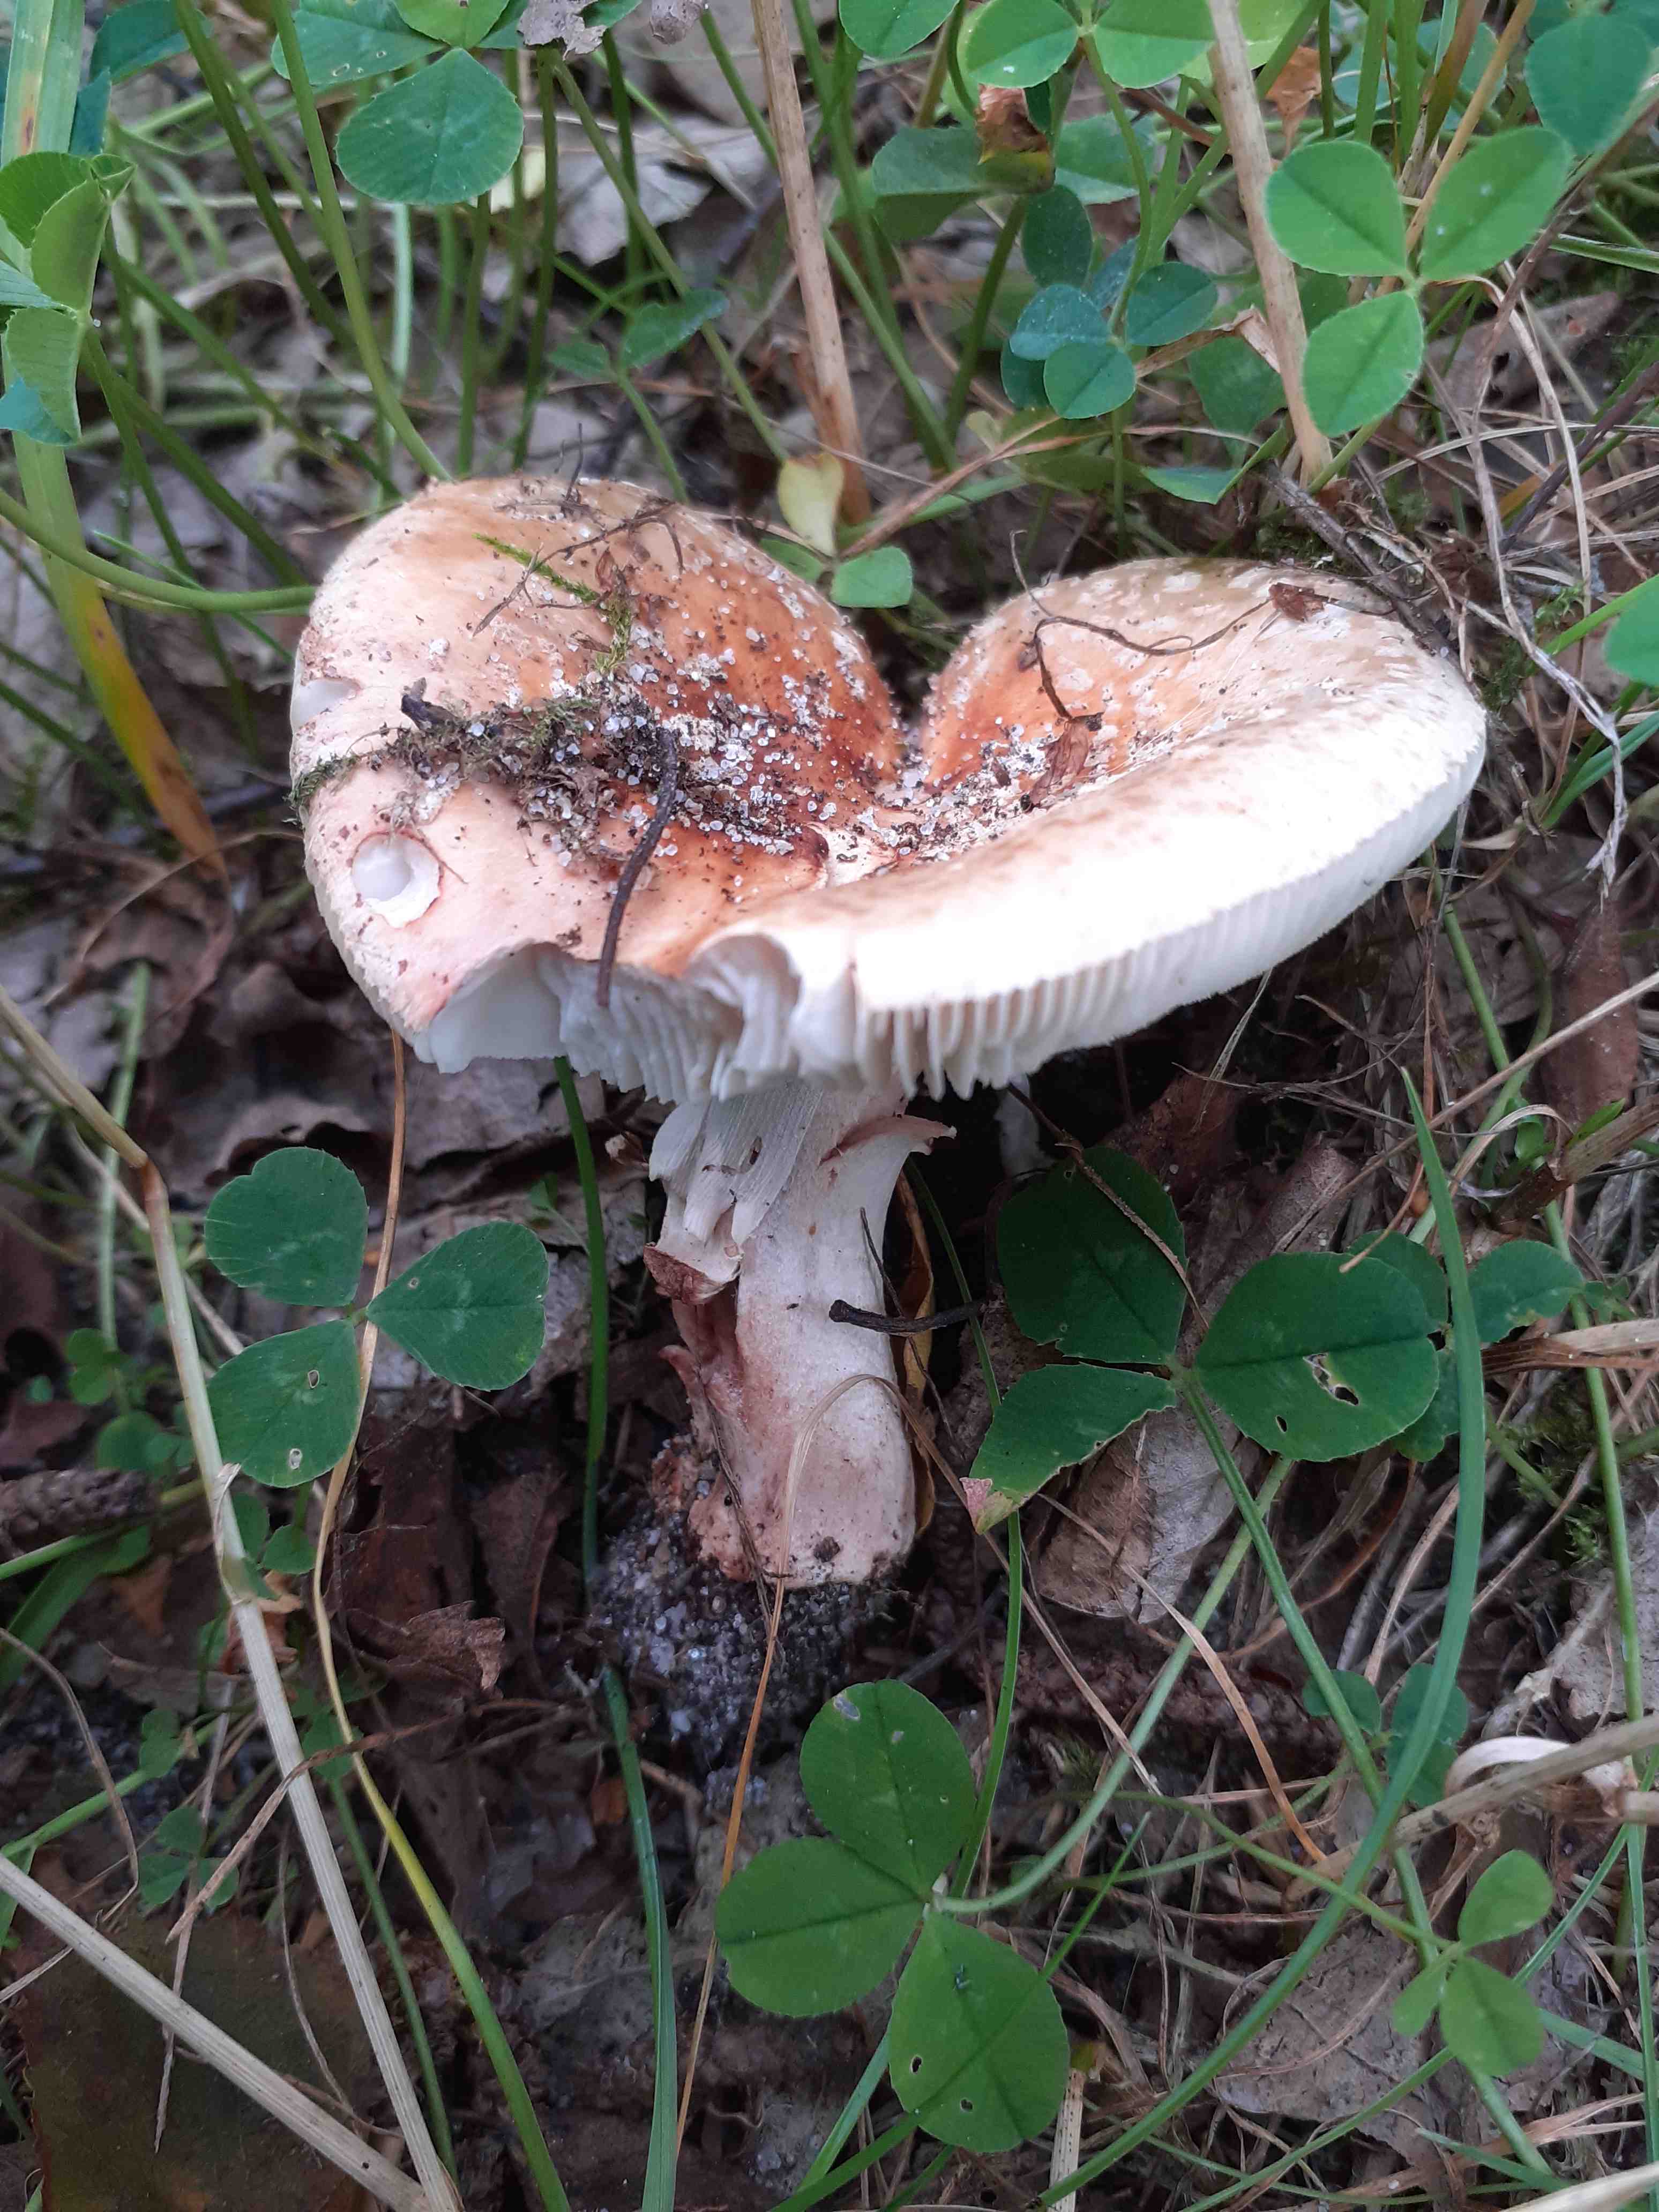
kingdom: Fungi
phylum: Basidiomycota
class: Agaricomycetes
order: Agaricales
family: Amanitaceae
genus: Amanita
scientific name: Amanita rubescens
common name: rødmende fluesvamp
